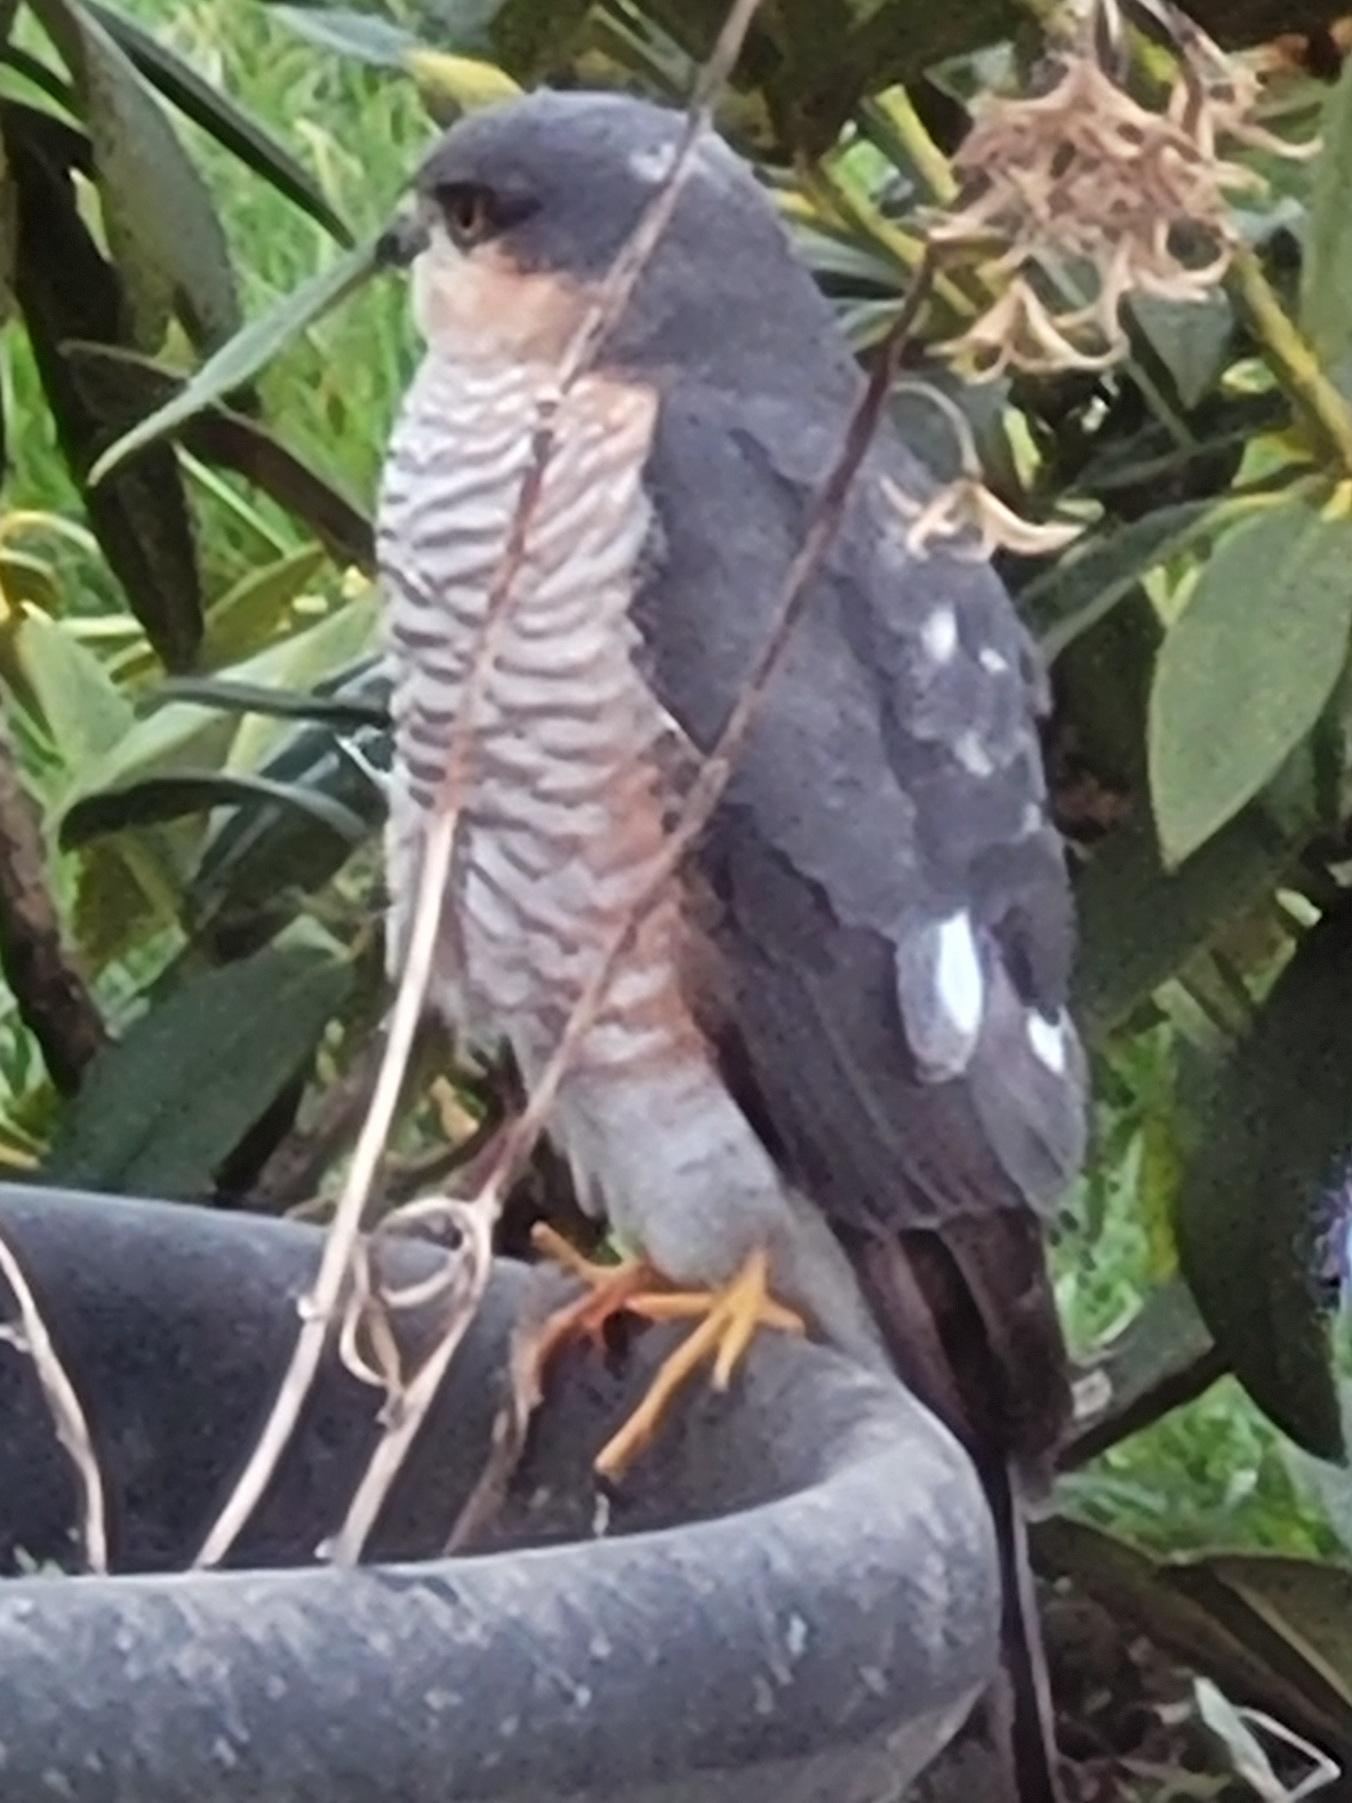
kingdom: Animalia
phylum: Chordata
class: Aves
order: Accipitriformes
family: Accipitridae
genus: Accipiter
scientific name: Accipiter nisus
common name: Spurvehøg
